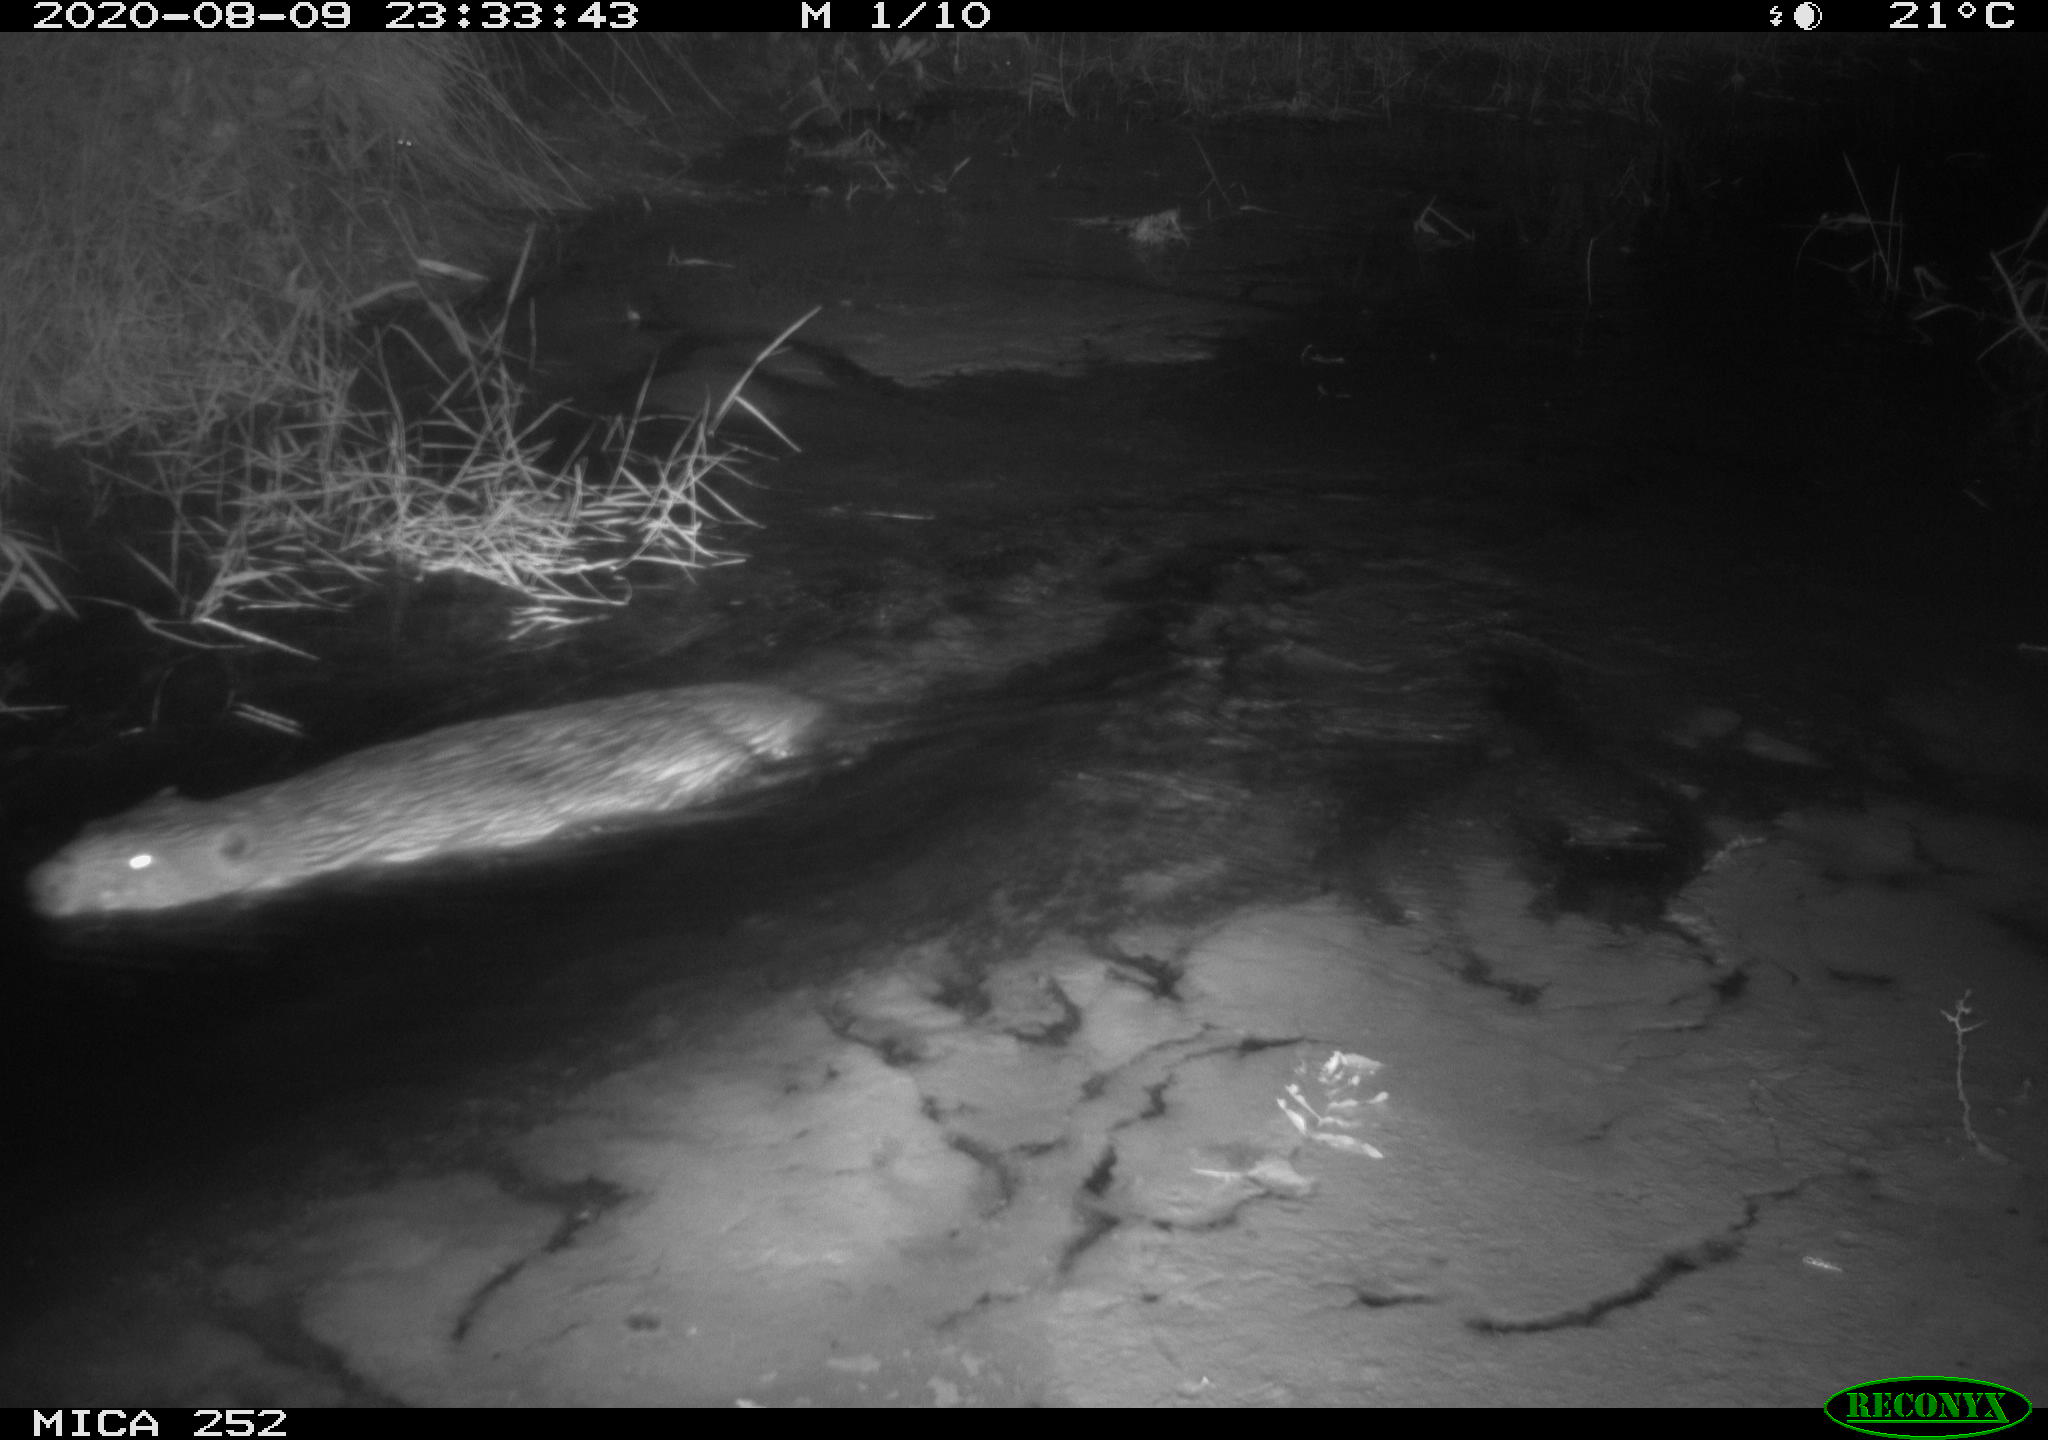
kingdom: Animalia
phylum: Chordata
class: Mammalia
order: Rodentia
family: Castoridae
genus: Castor
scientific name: Castor fiber
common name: Eurasian beaver
